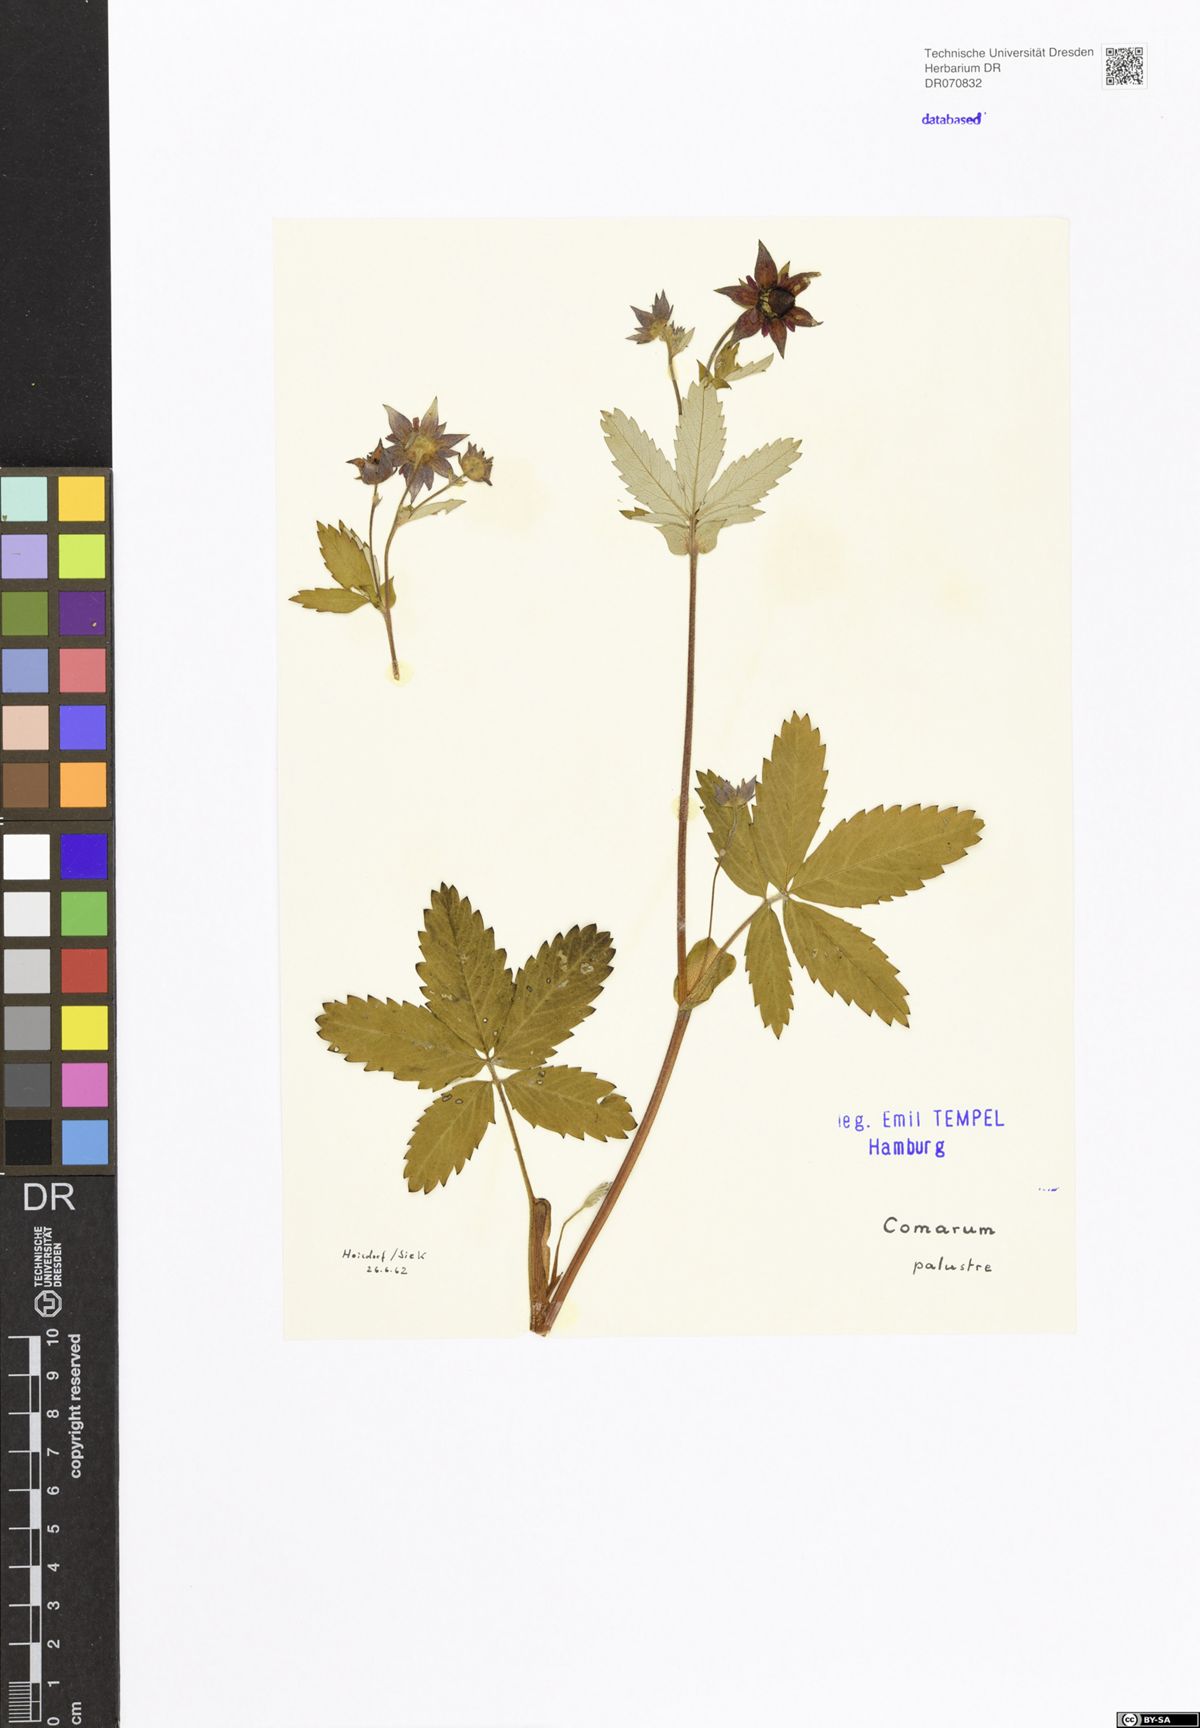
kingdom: Plantae
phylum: Tracheophyta
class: Magnoliopsida
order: Rosales
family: Rosaceae
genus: Comarum
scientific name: Comarum palustre
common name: Marsh cinquefoil
